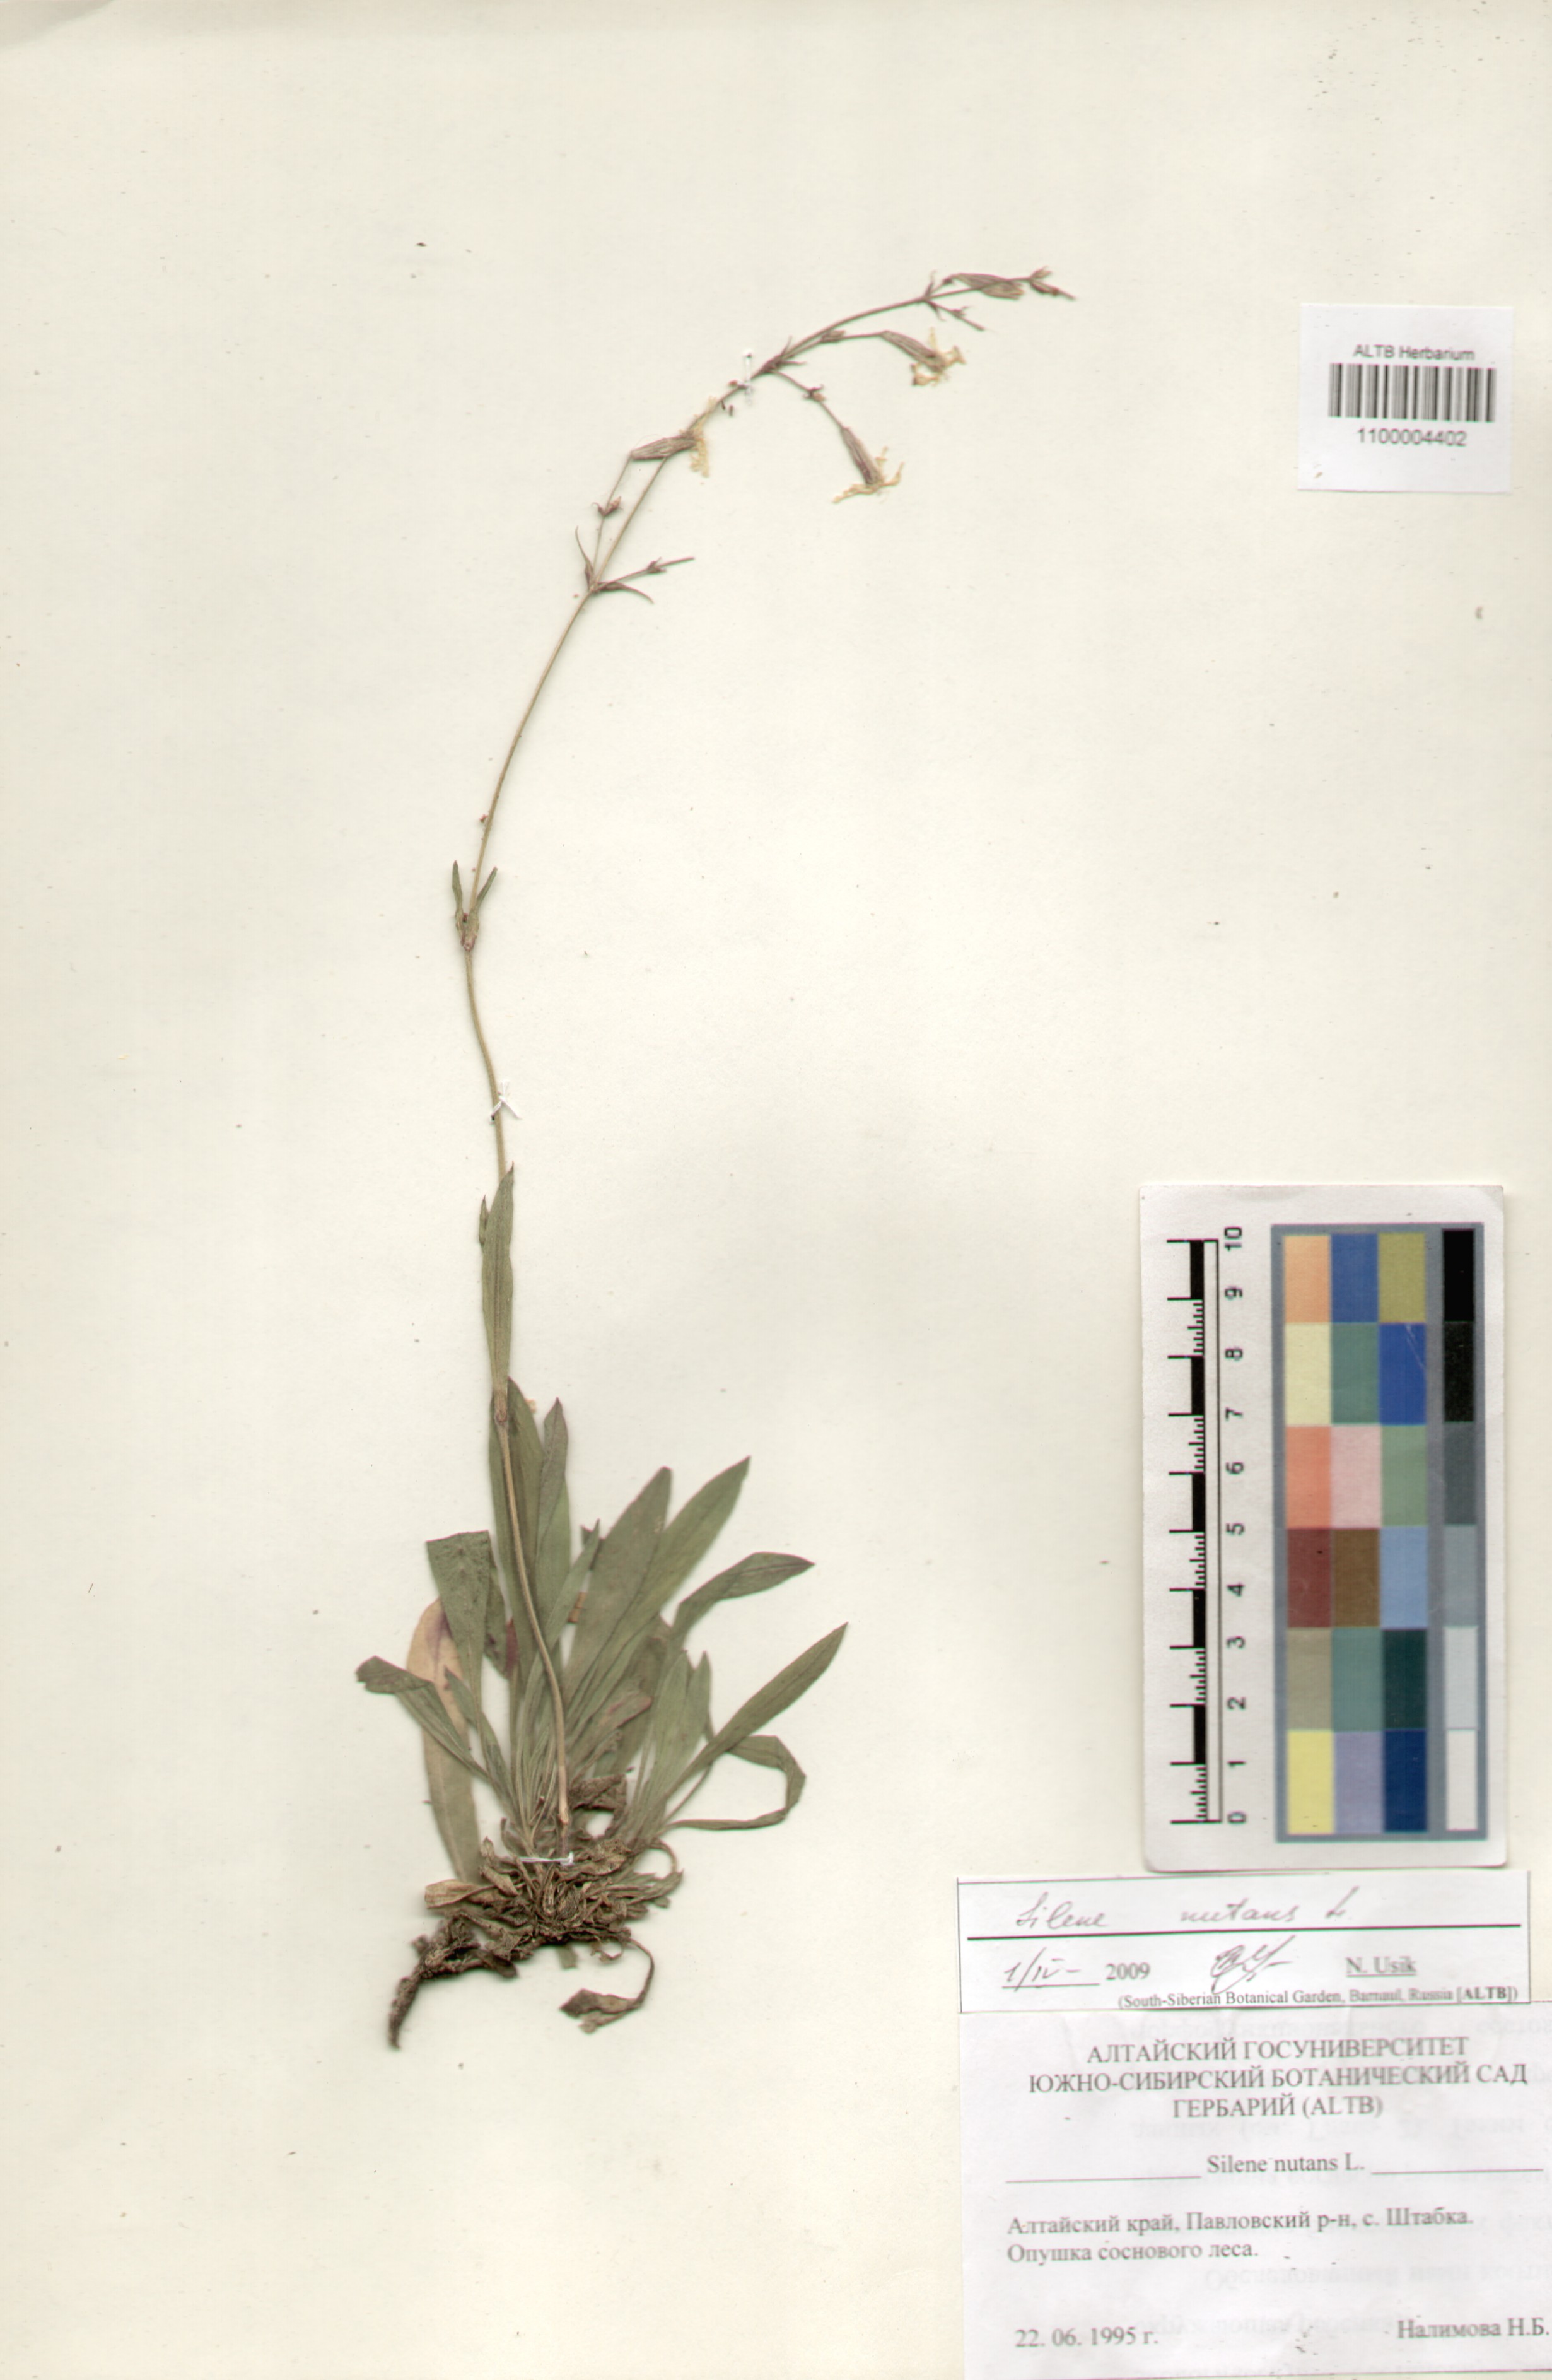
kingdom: Plantae
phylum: Tracheophyta
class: Magnoliopsida
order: Caryophyllales
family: Caryophyllaceae
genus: Silene
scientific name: Silene nutans
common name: Nottingham catchfly
